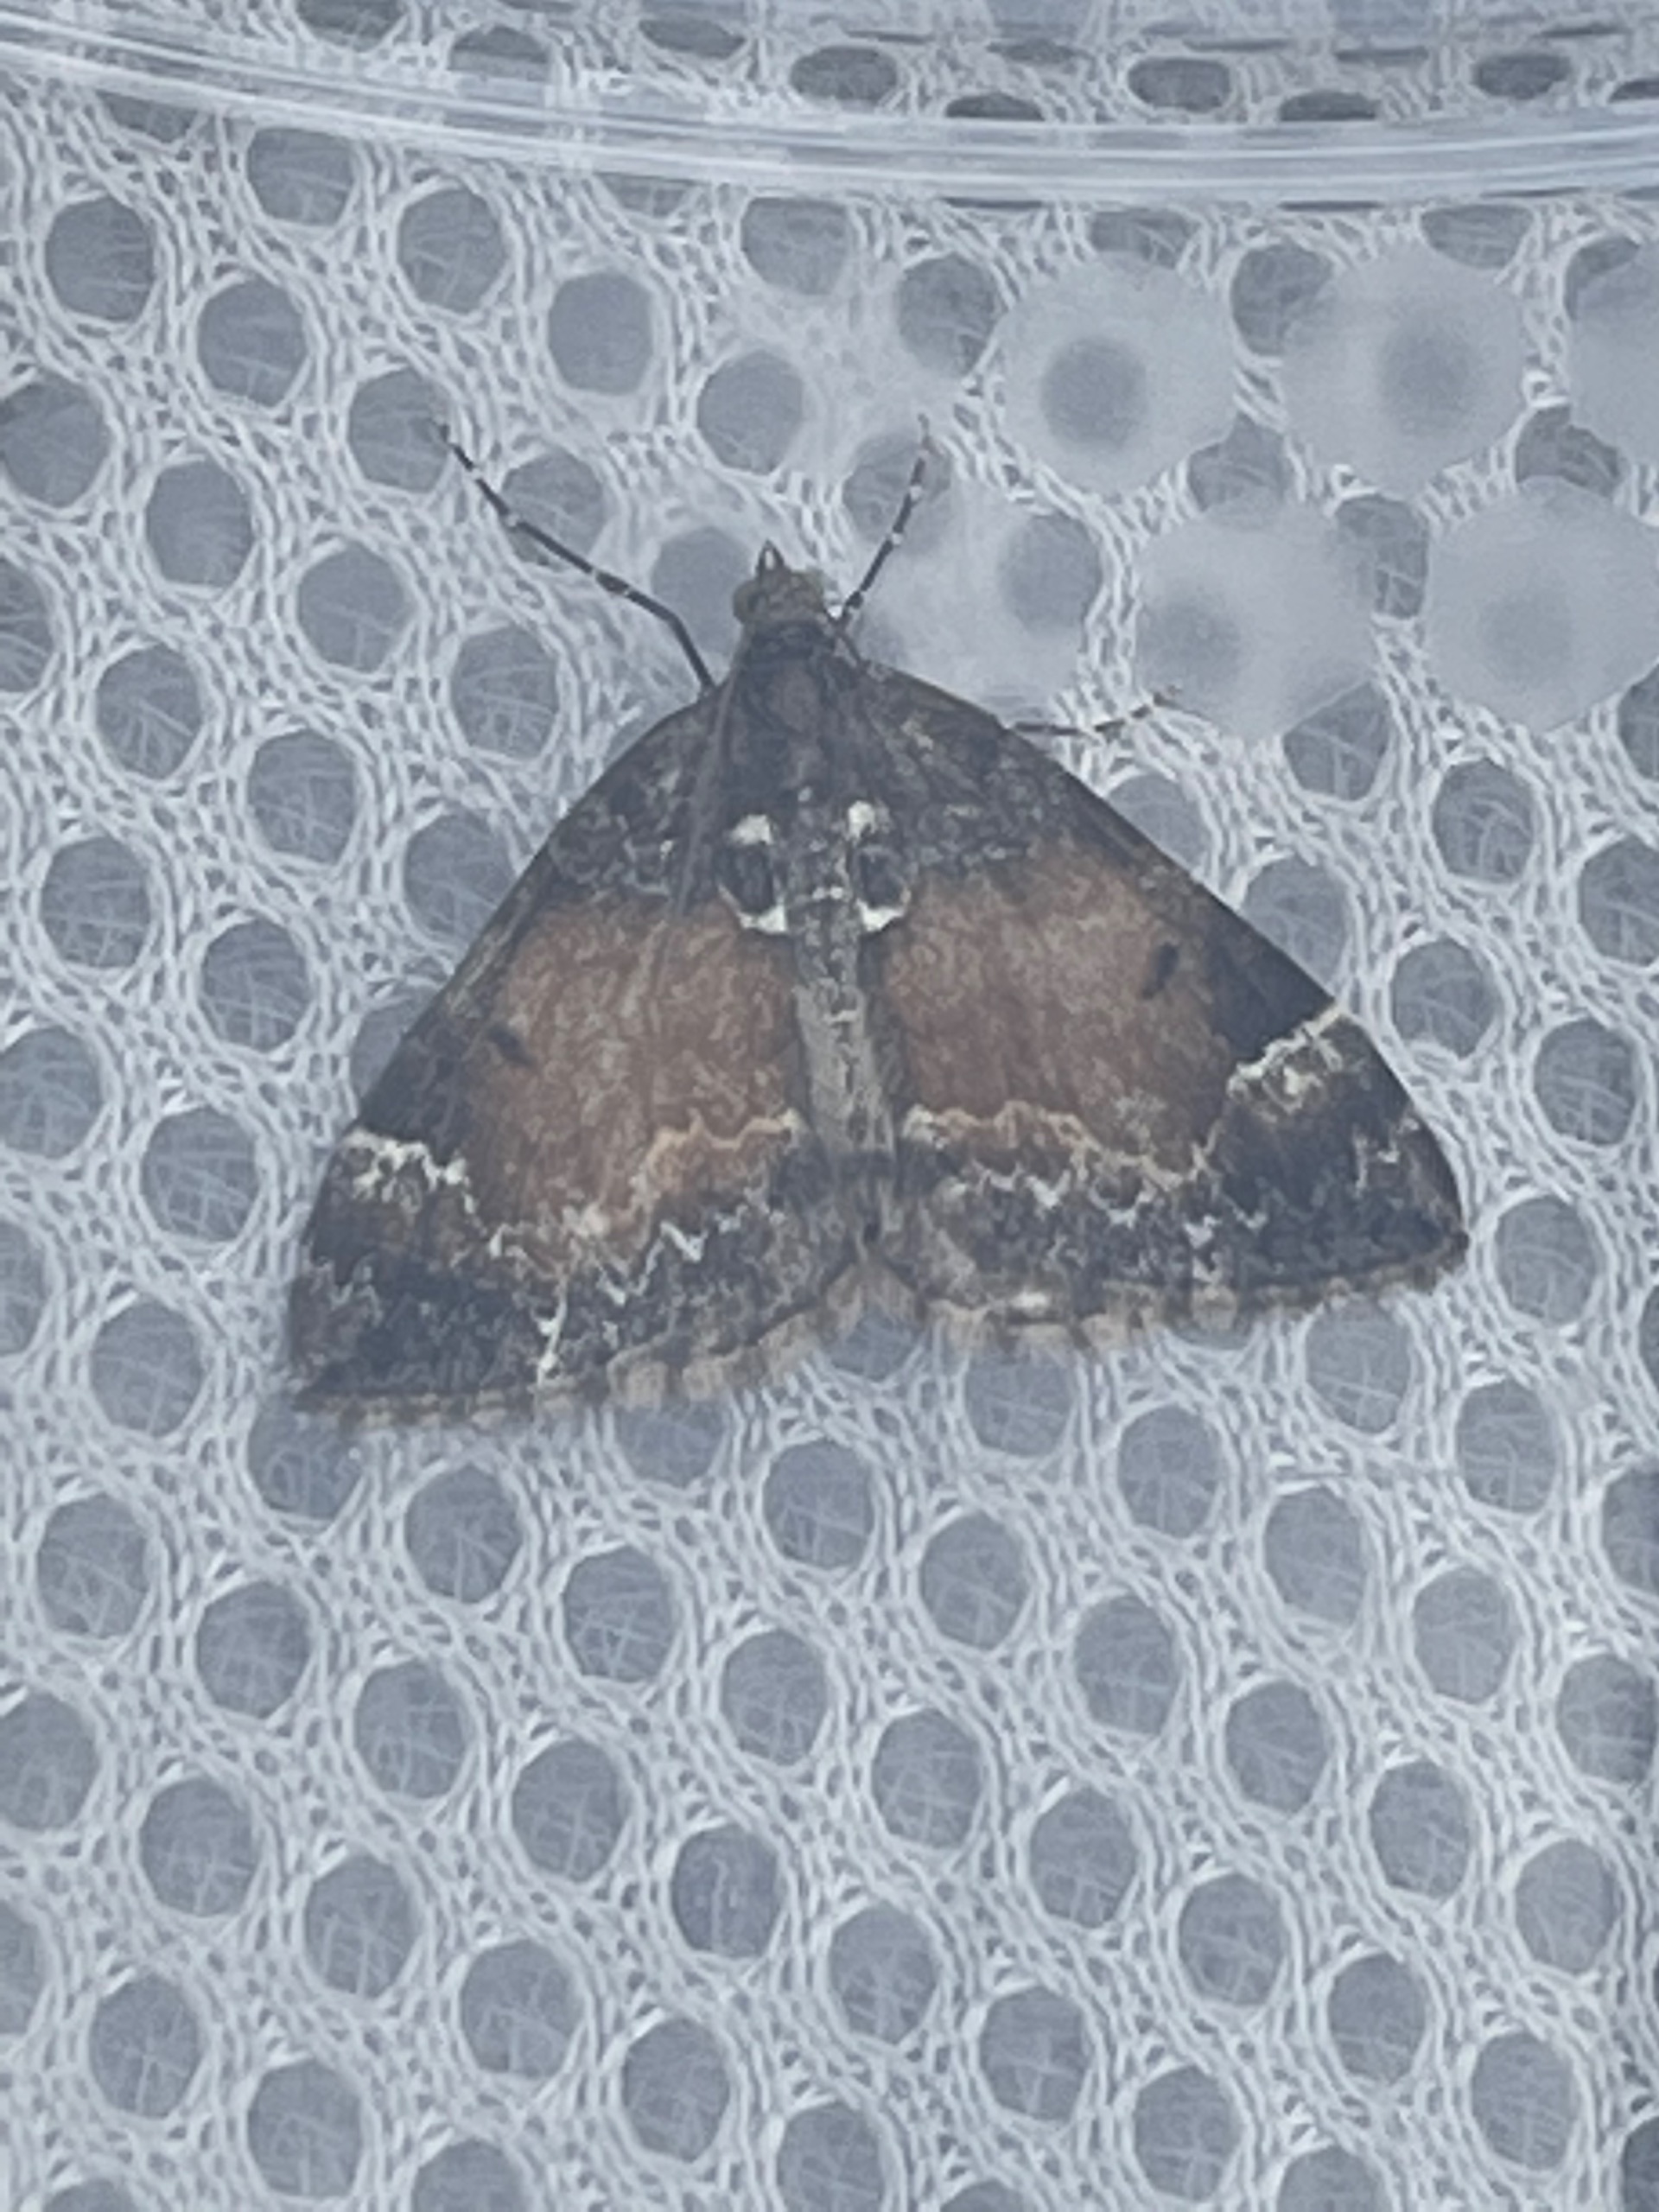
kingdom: Animalia
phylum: Arthropoda
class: Insecta
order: Lepidoptera
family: Geometridae
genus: Dysstroma
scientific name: Dysstroma truncata
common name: Jordbær-bladmåler
